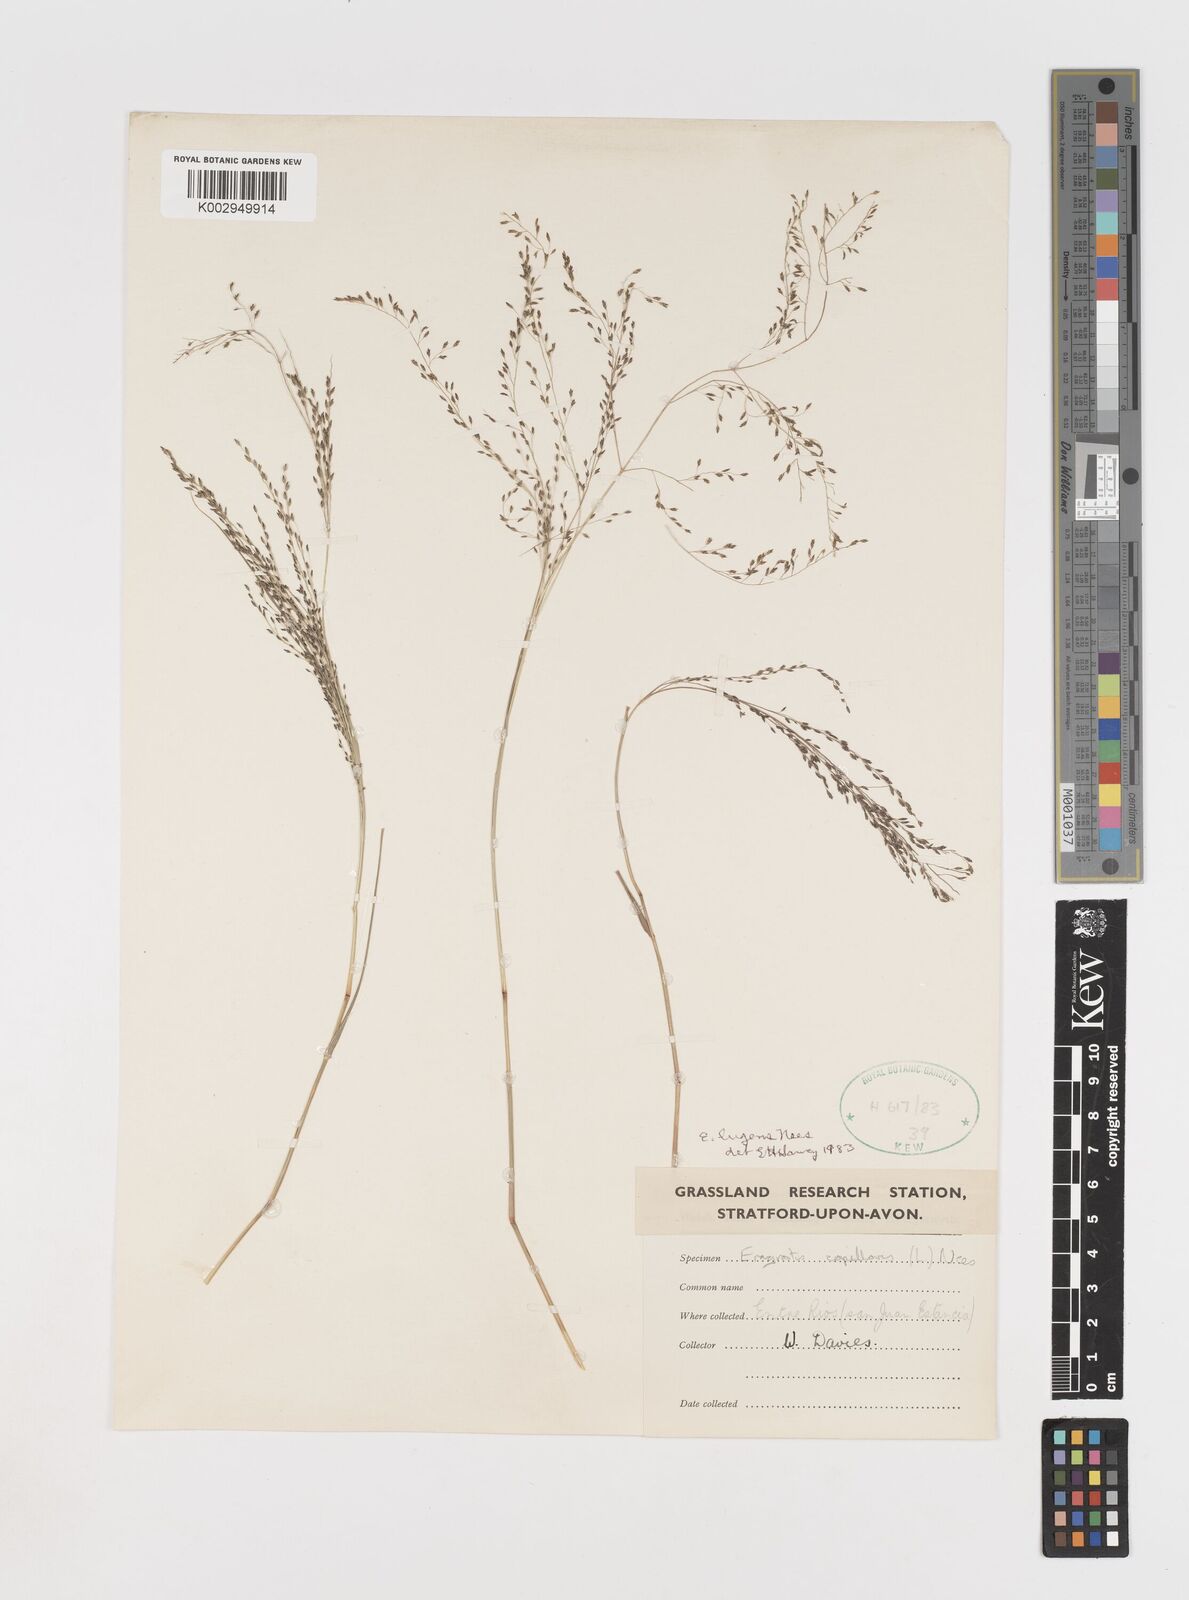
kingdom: Plantae
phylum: Tracheophyta
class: Liliopsida
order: Poales
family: Poaceae
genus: Eragrostis
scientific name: Eragrostis lugens
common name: Mourning love grass
